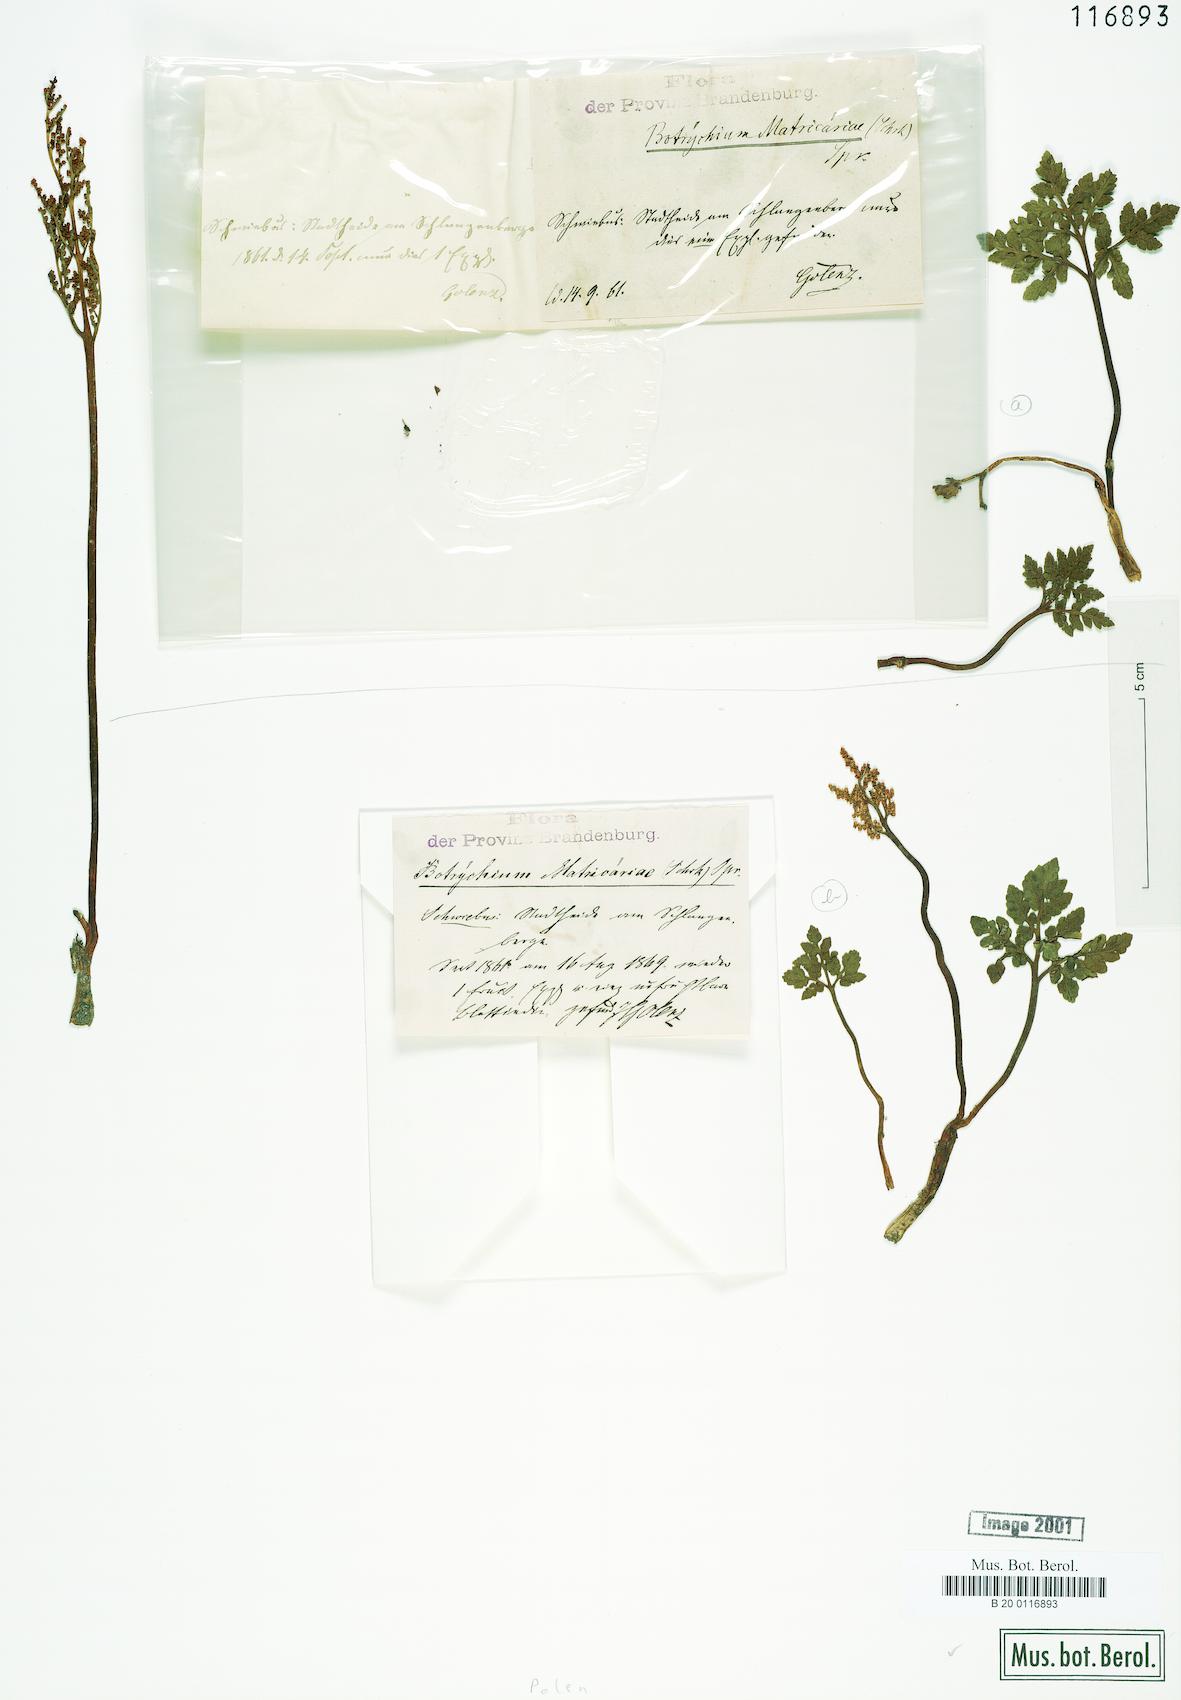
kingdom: Plantae
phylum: Tracheophyta
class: Polypodiopsida
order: Ophioglossales
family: Ophioglossaceae
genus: Sceptridium
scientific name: Sceptridium multifidum
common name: Leathery grape fern
